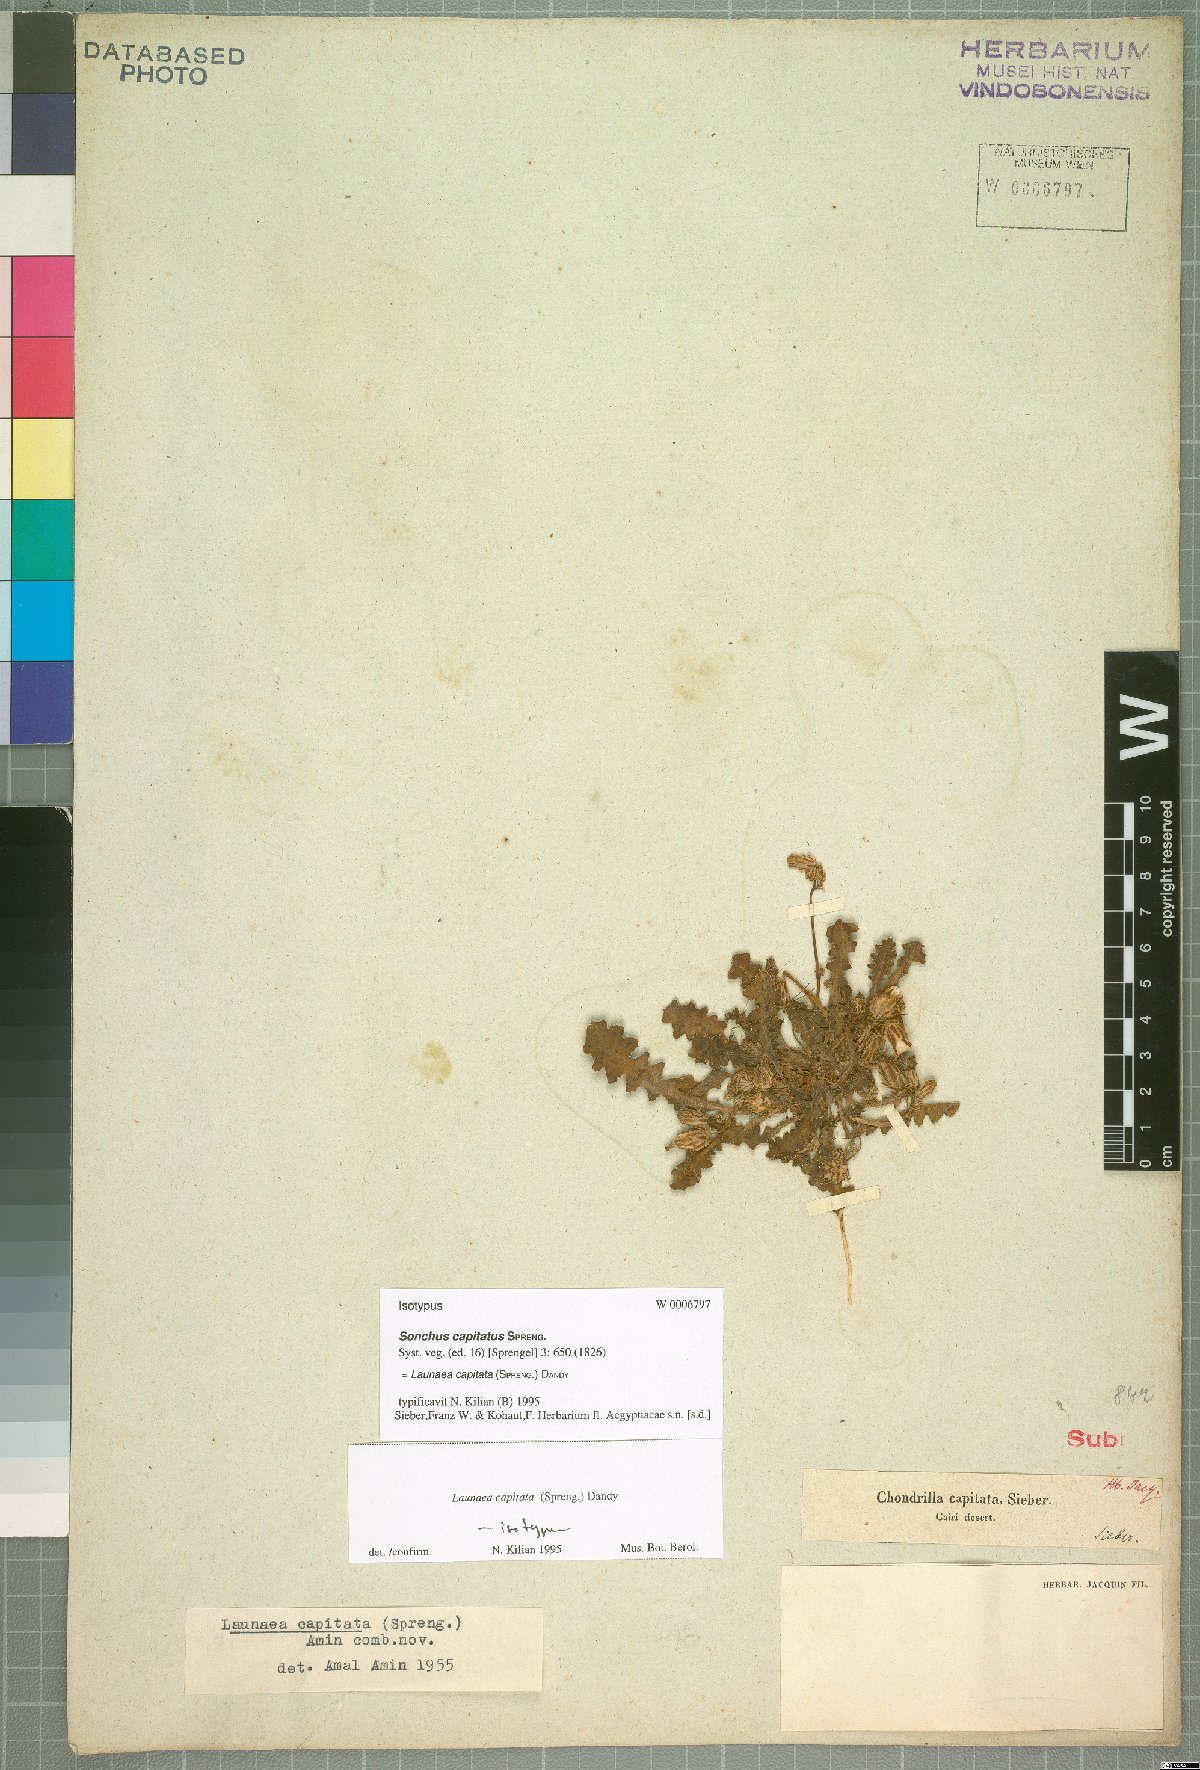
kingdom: Plantae
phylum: Tracheophyta
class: Magnoliopsida
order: Asterales
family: Asteraceae
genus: Launaea
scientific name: Launaea capitata
